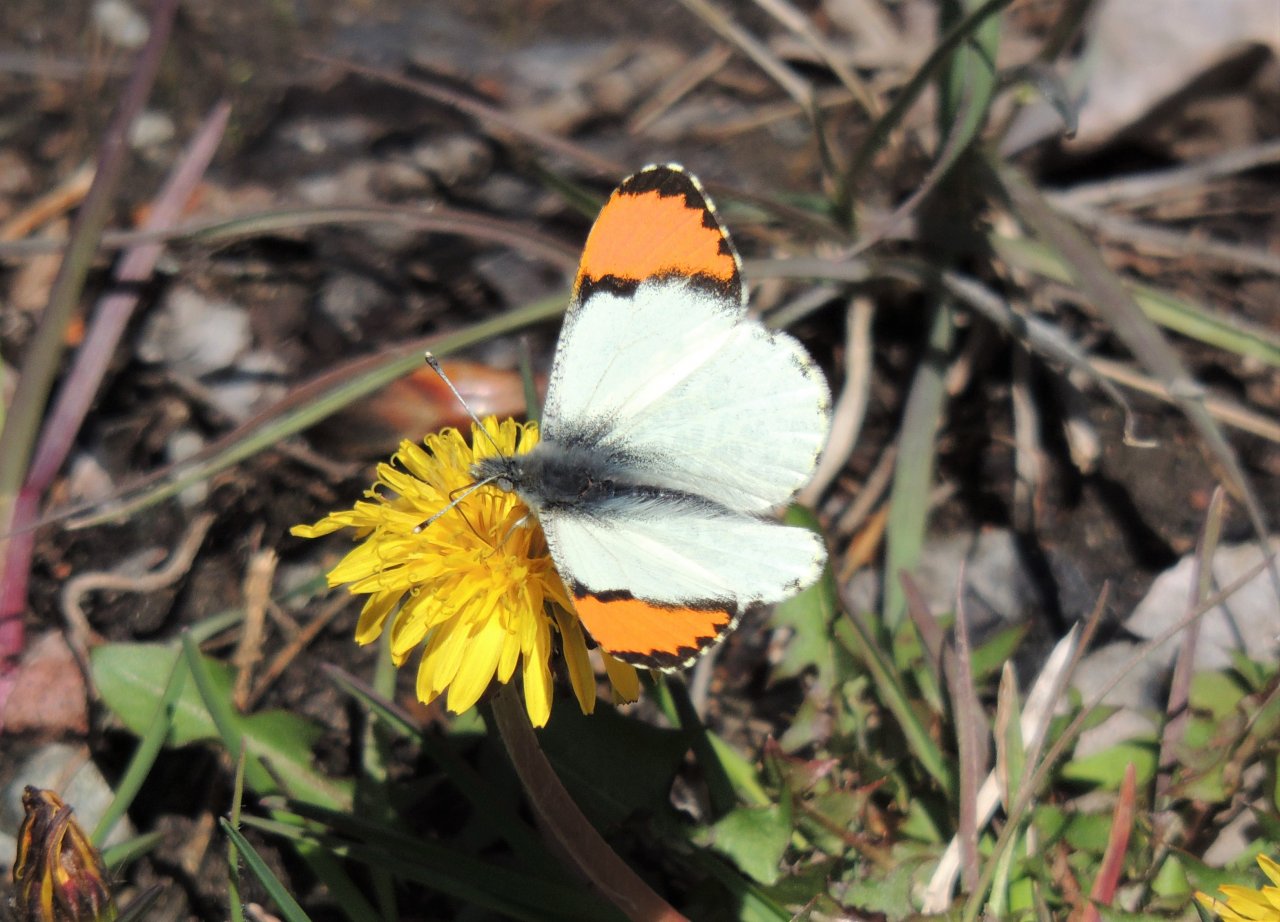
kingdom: Animalia
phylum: Arthropoda
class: Insecta
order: Lepidoptera
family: Pieridae
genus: Anthocharis
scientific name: Anthocharis sara
